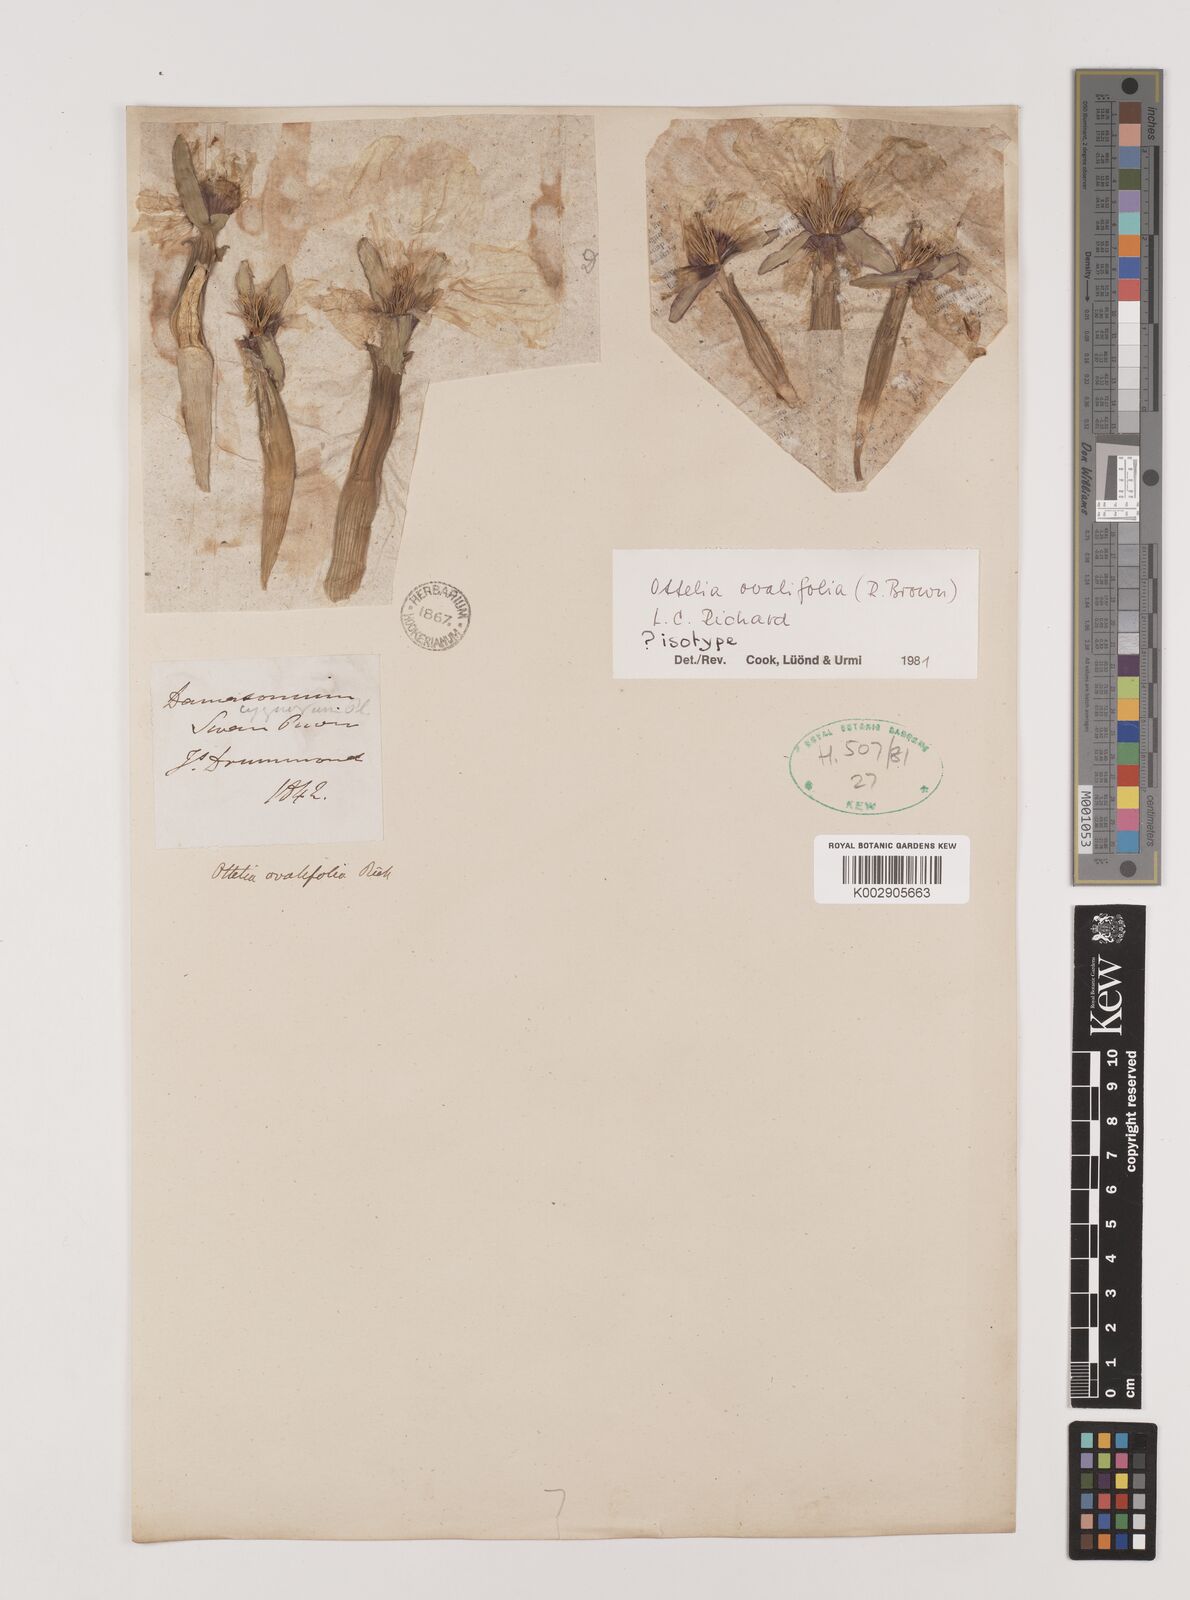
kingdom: Plantae
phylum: Tracheophyta
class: Liliopsida
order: Alismatales
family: Hydrocharitaceae
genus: Ottelia
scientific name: Ottelia ovalifolia
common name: Swamp-lily
